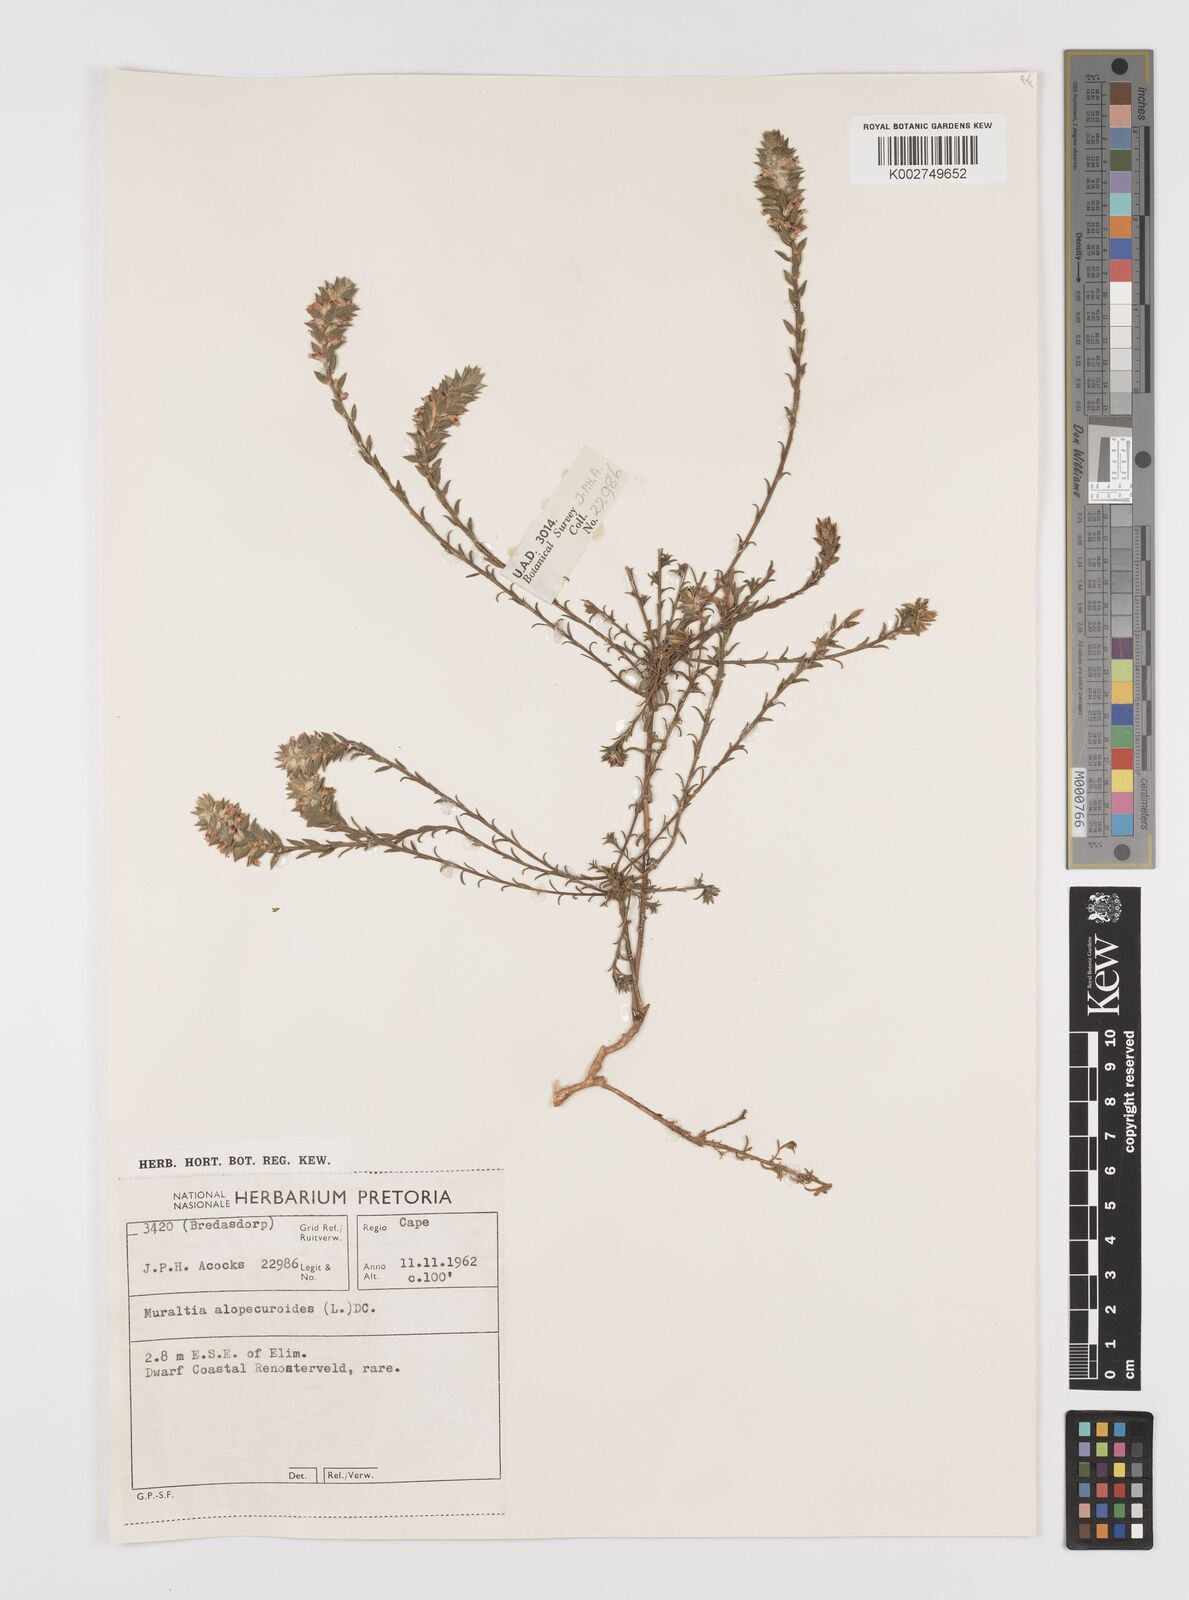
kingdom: Plantae
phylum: Tracheophyta
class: Magnoliopsida
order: Fabales
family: Polygalaceae
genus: Muraltia
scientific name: Muraltia alopecuroides
